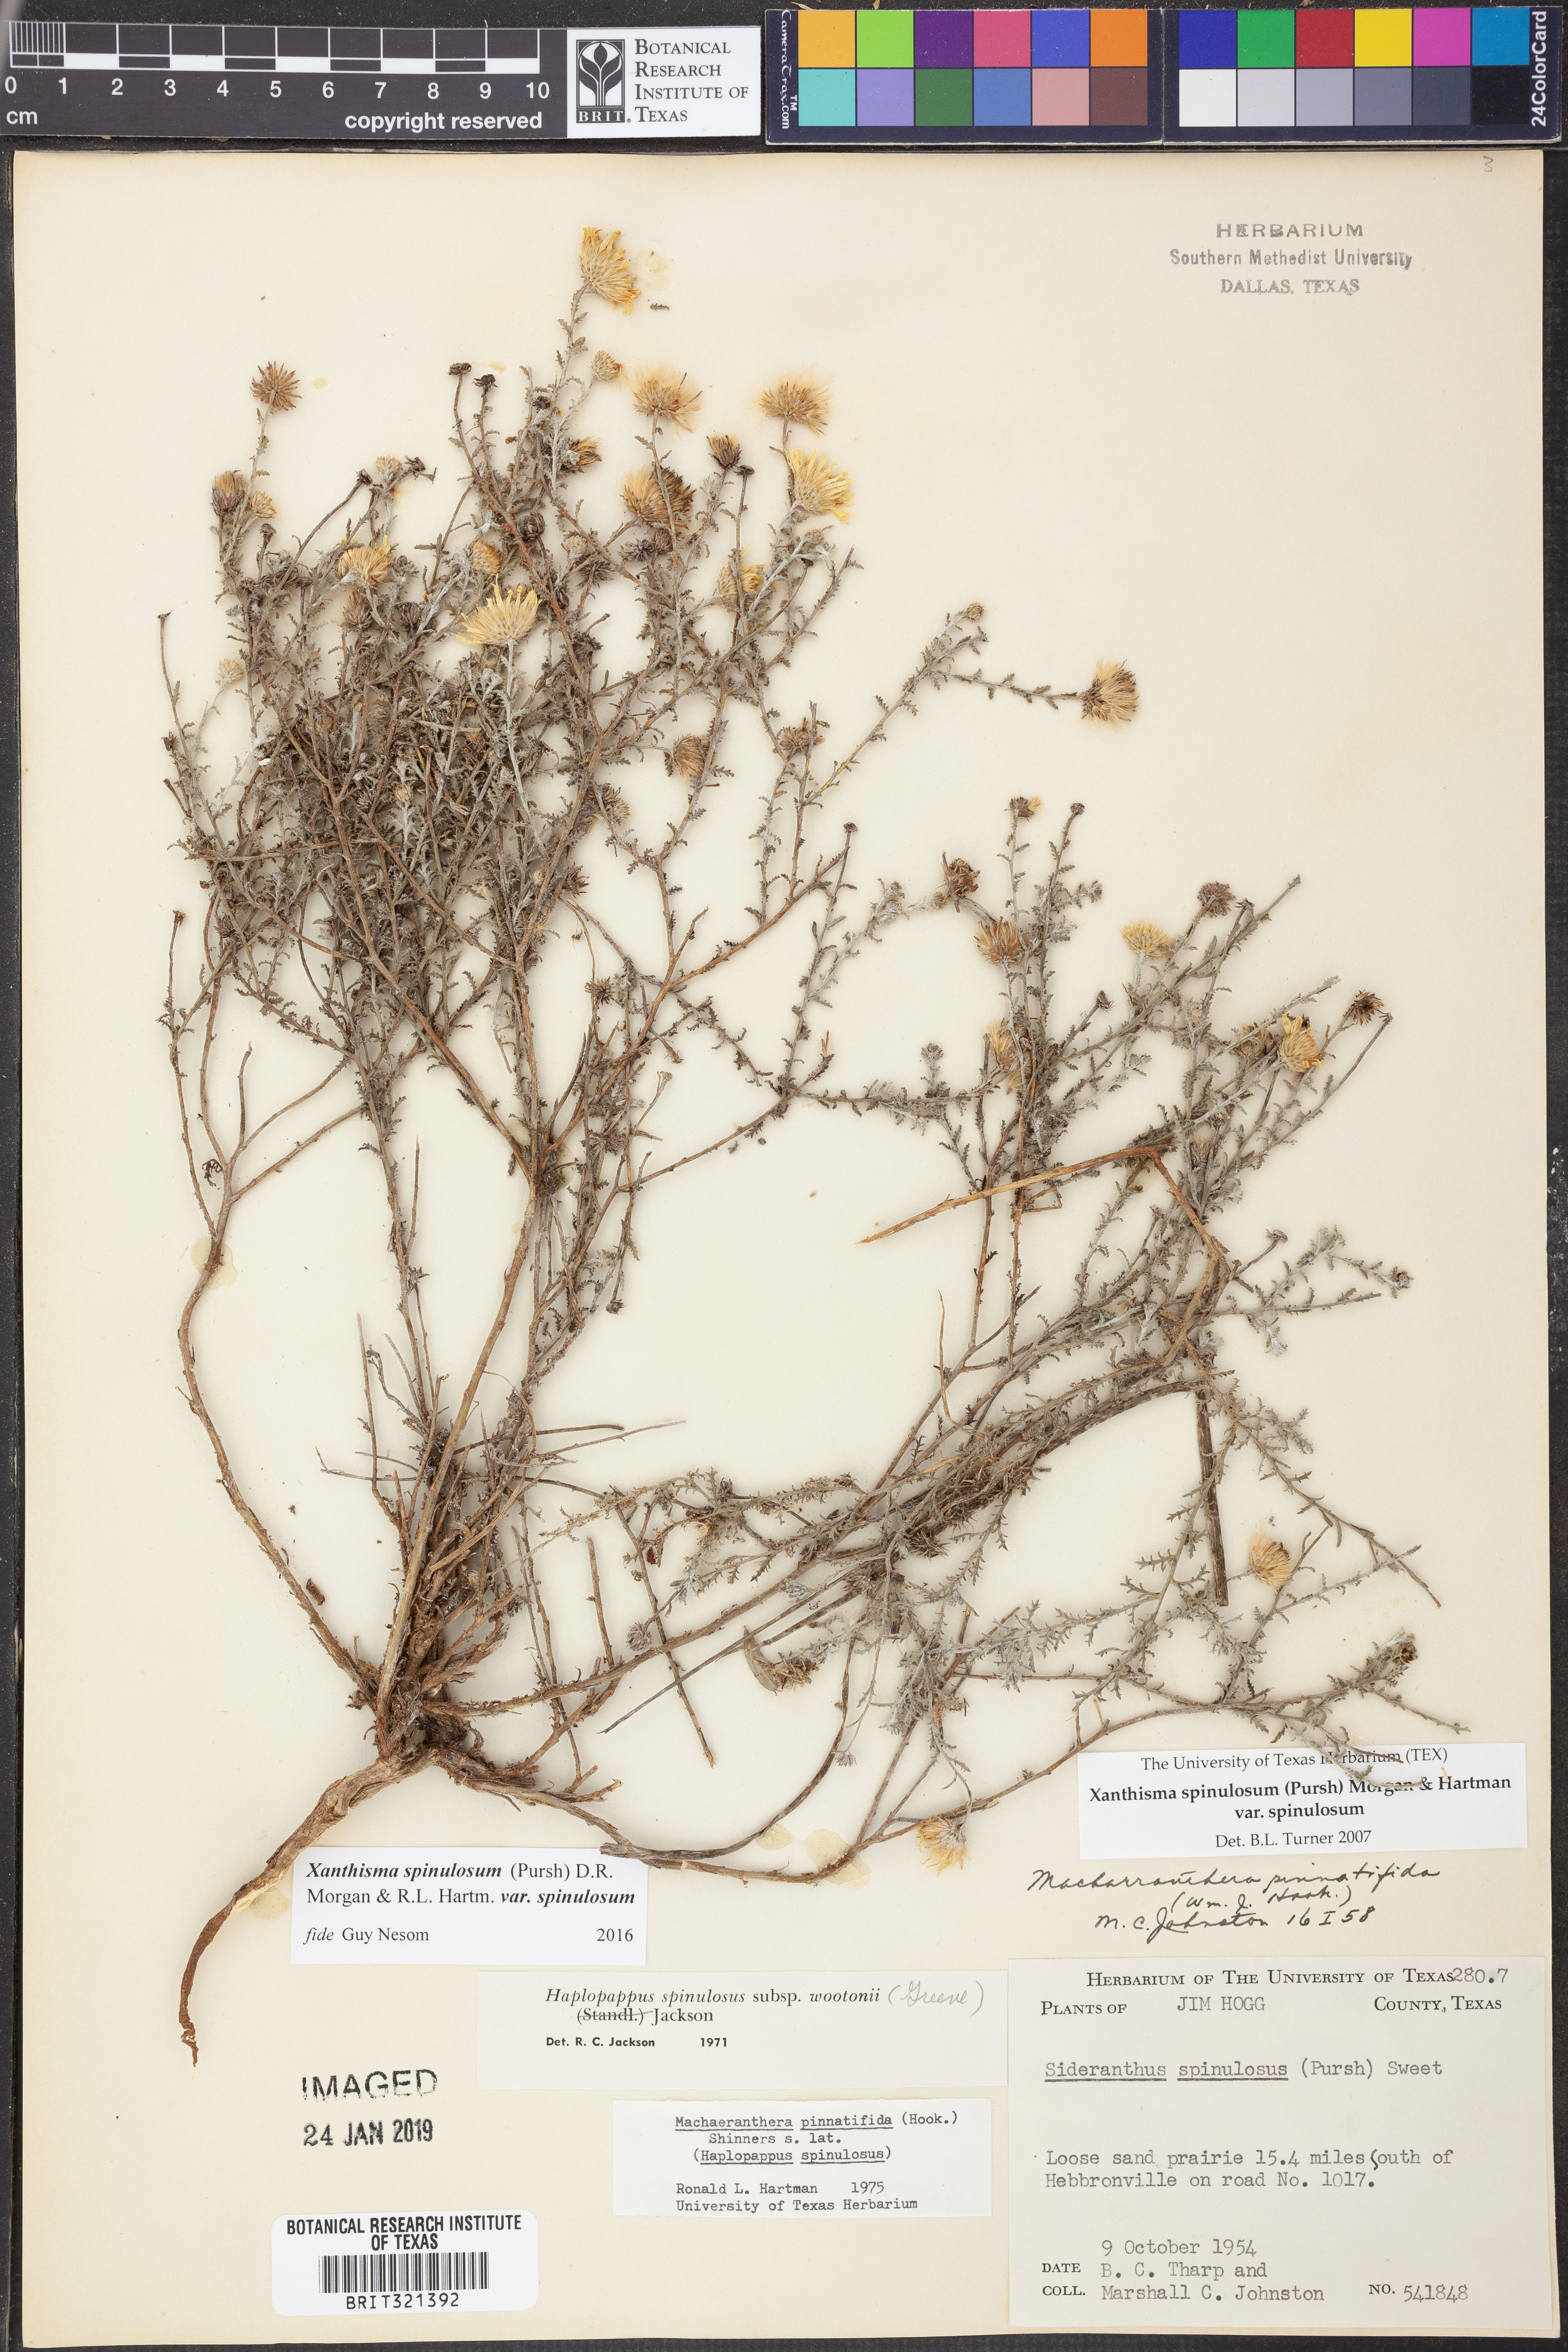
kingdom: Plantae
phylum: Tracheophyta
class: Magnoliopsida
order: Asterales
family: Asteraceae
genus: Xanthisma
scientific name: Xanthisma spinulosum
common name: Spiny goldenweed
